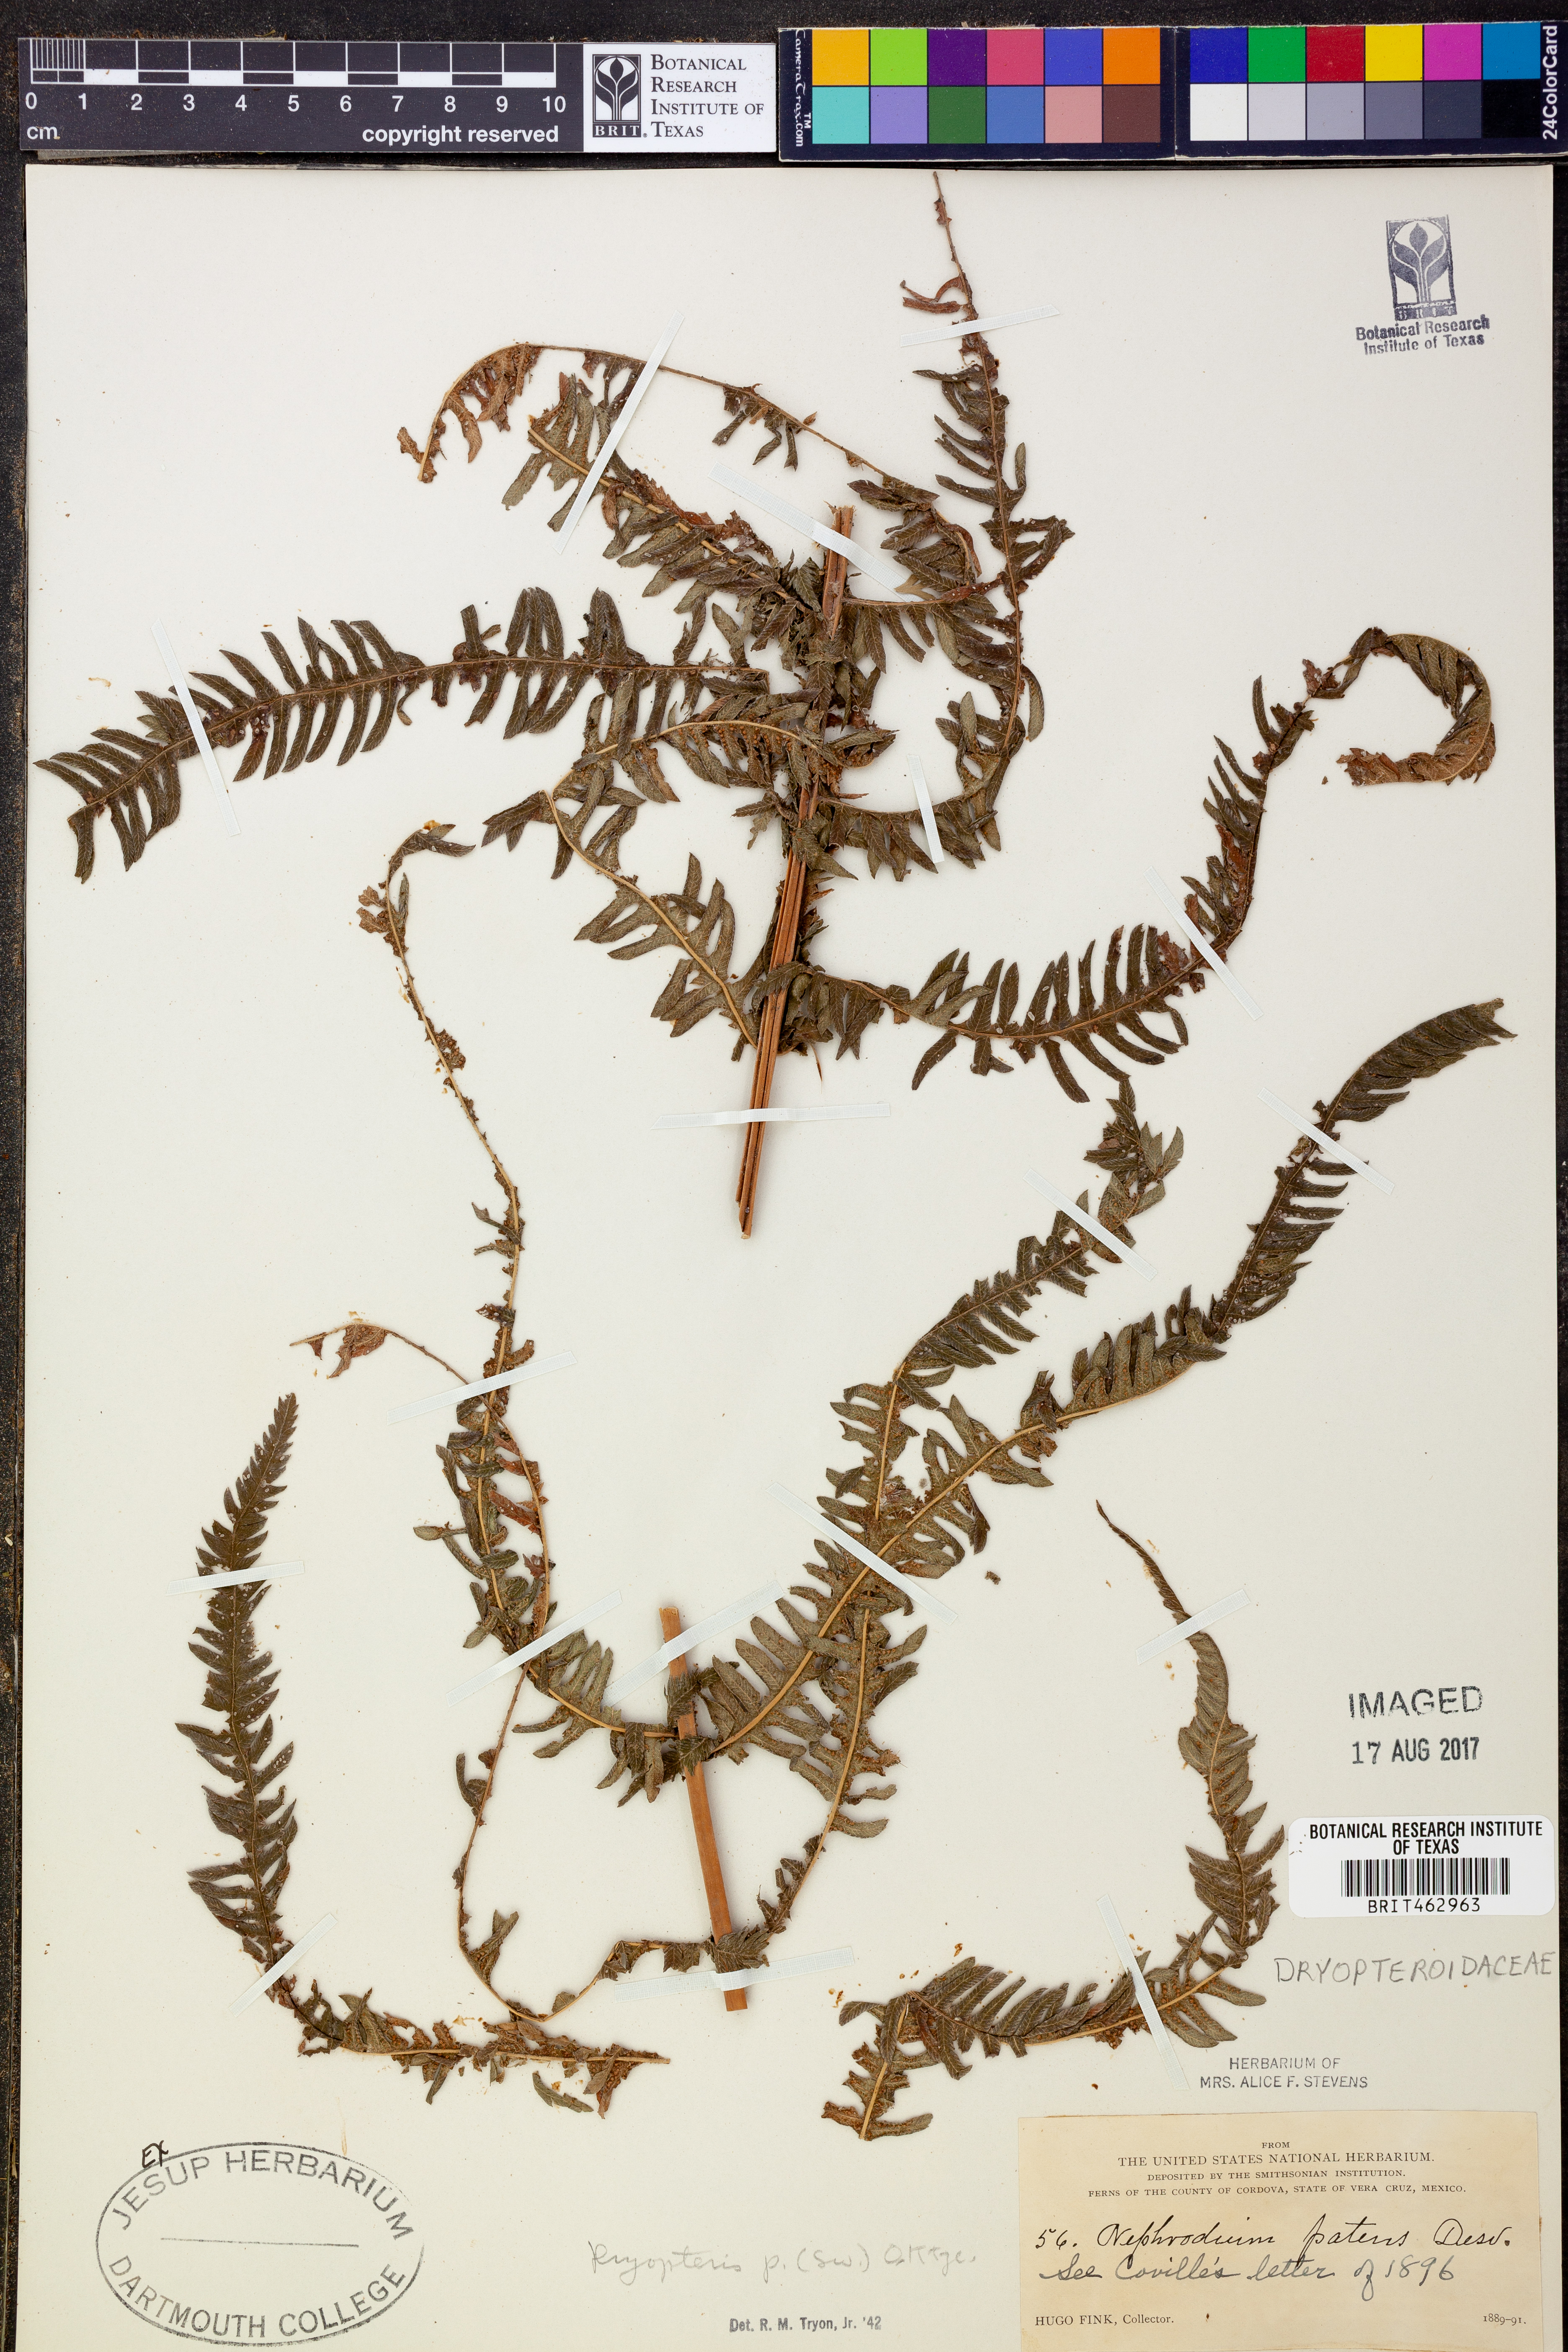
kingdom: Plantae
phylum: Tracheophyta
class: Polypodiopsida
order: Polypodiales
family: Thelypteridaceae
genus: Pelazoneuron
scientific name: Pelazoneuron patens
